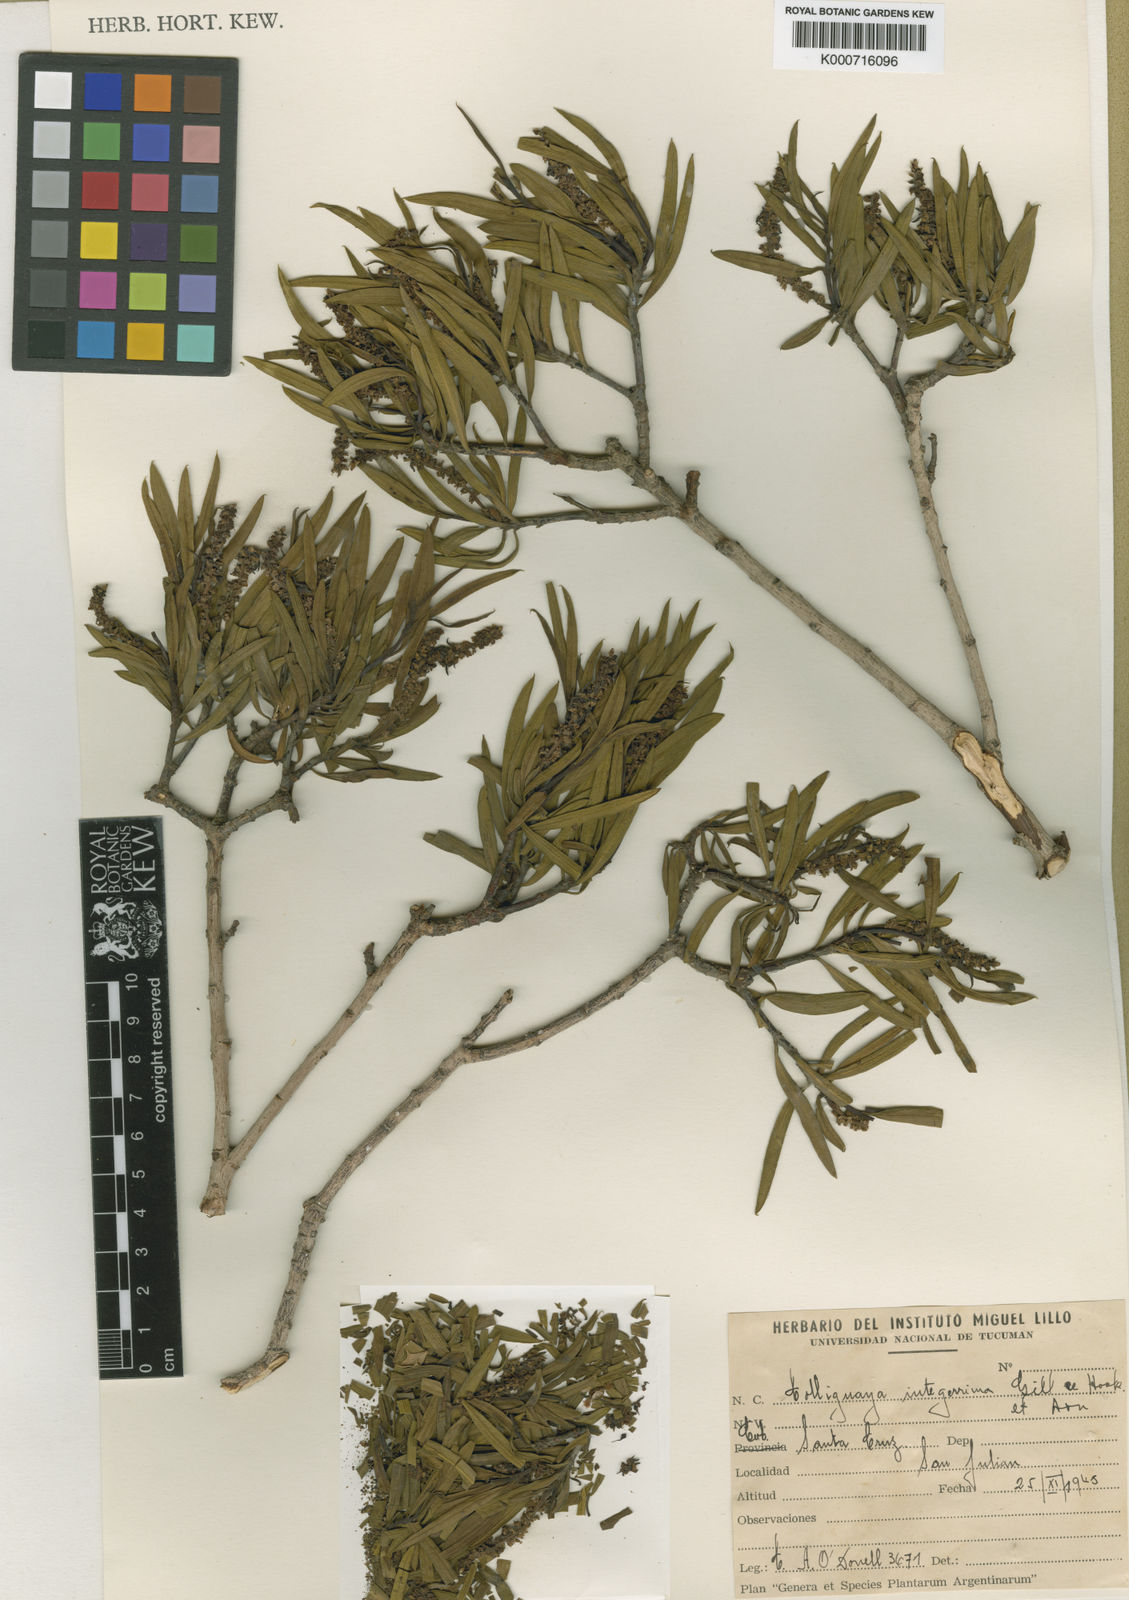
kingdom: Plantae
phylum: Tracheophyta
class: Magnoliopsida
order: Malpighiales
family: Euphorbiaceae
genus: Colliguaja
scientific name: Colliguaja integerrima
